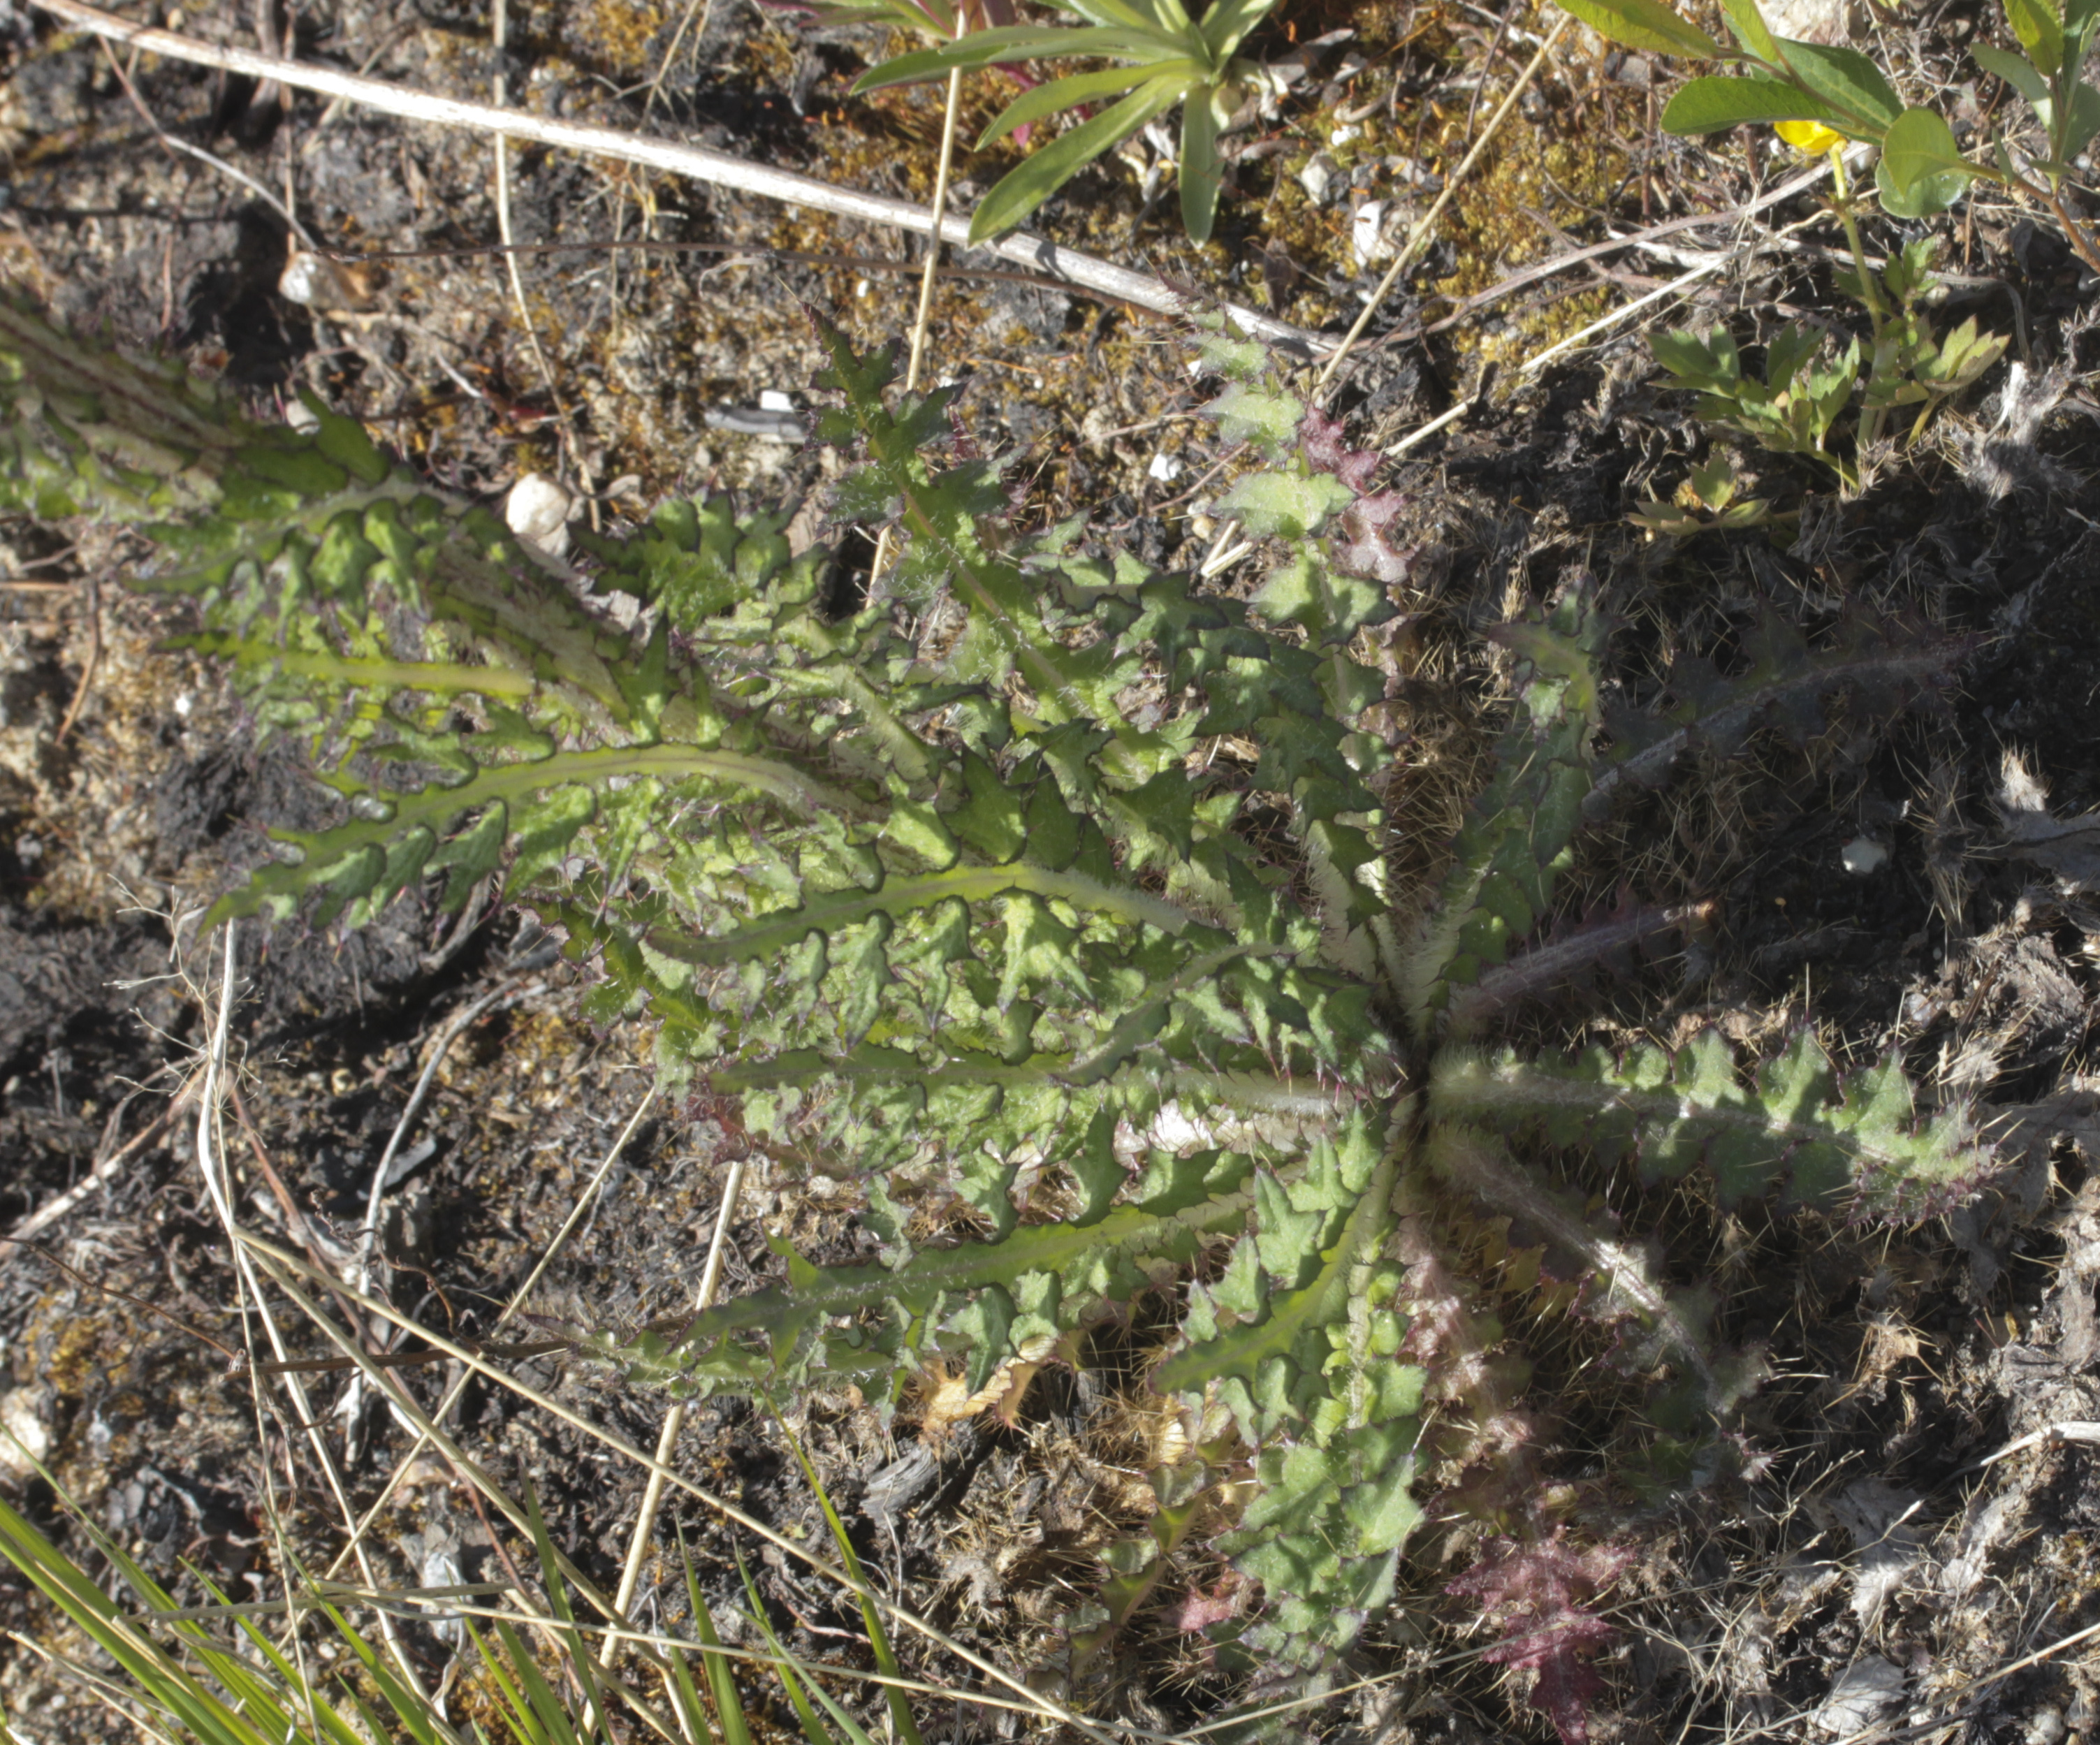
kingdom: Plantae
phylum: Tracheophyta
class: Magnoliopsida
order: Asterales
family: Asteraceae
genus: Cirsium
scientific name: Cirsium palustre
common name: Marsh thistle
